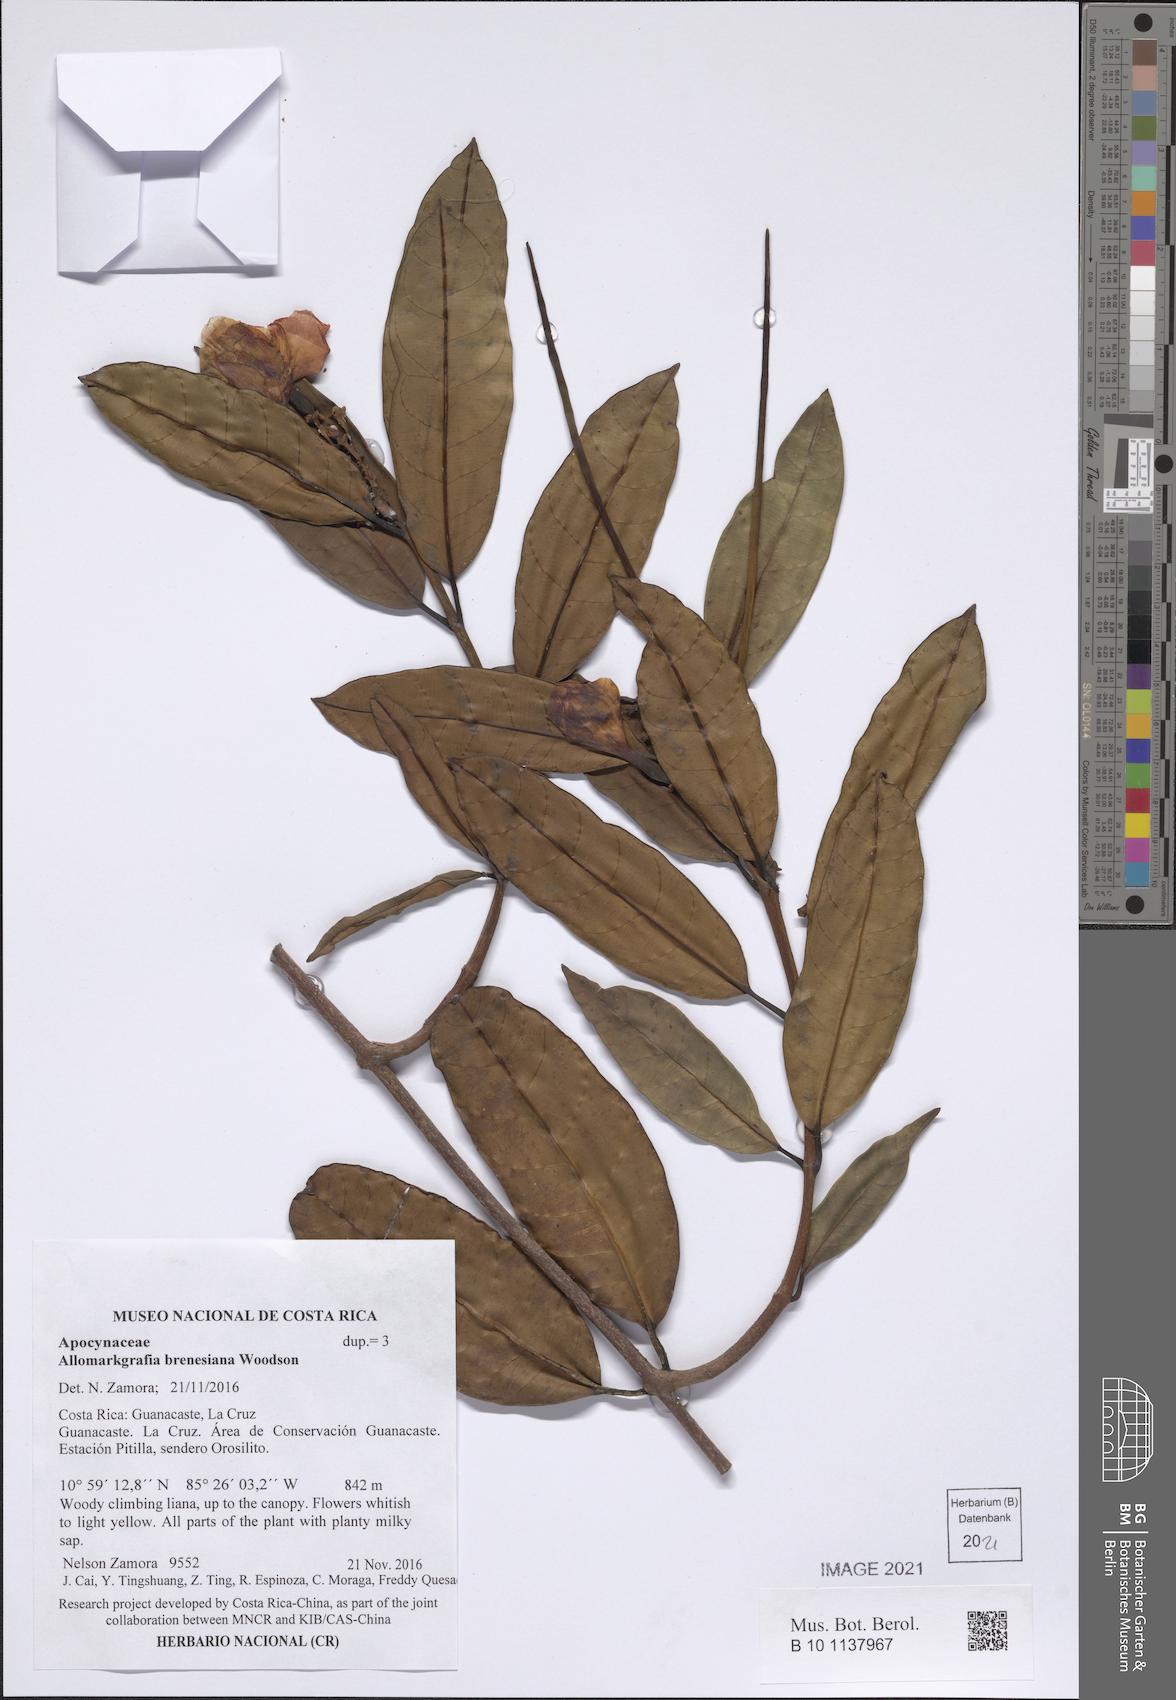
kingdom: Plantae
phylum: Tracheophyta
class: Magnoliopsida
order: Gentianales
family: Apocynaceae
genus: Allomarkgrafia
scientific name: Allomarkgrafia brenesiana
